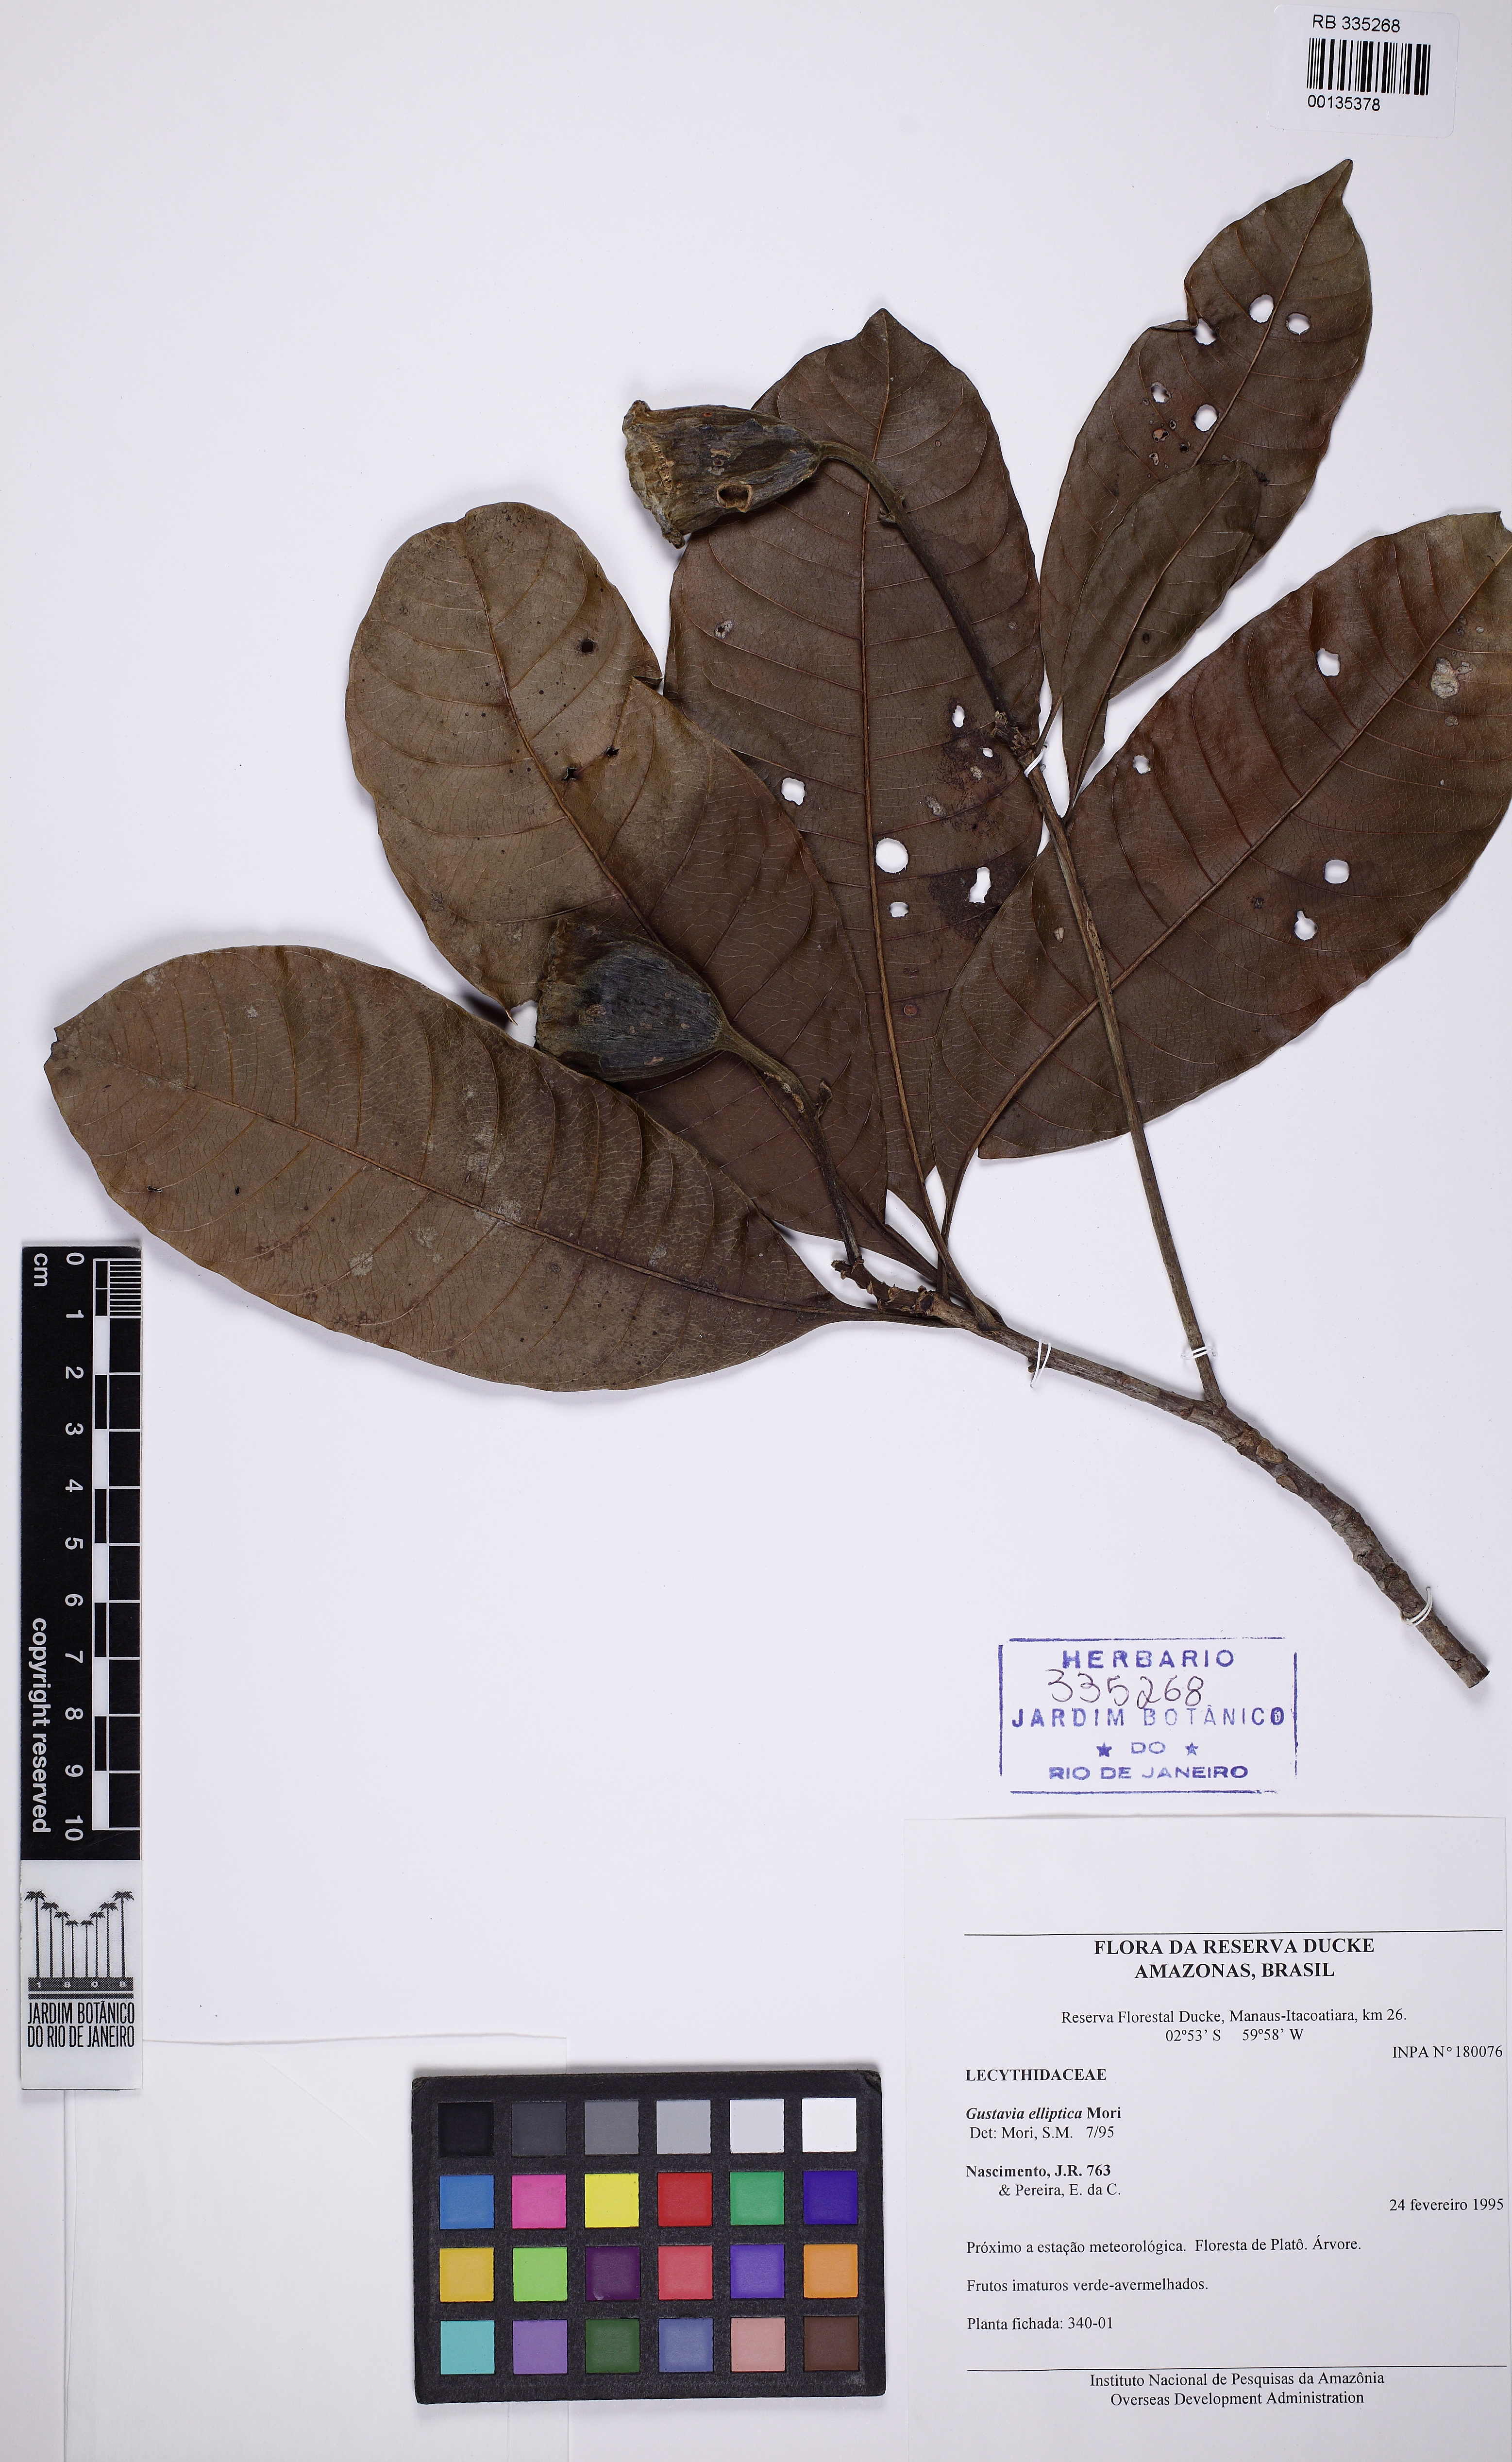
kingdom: Plantae
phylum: Tracheophyta
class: Magnoliopsida
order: Ericales
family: Lecythidaceae
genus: Gustavia
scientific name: Gustavia elliptica
